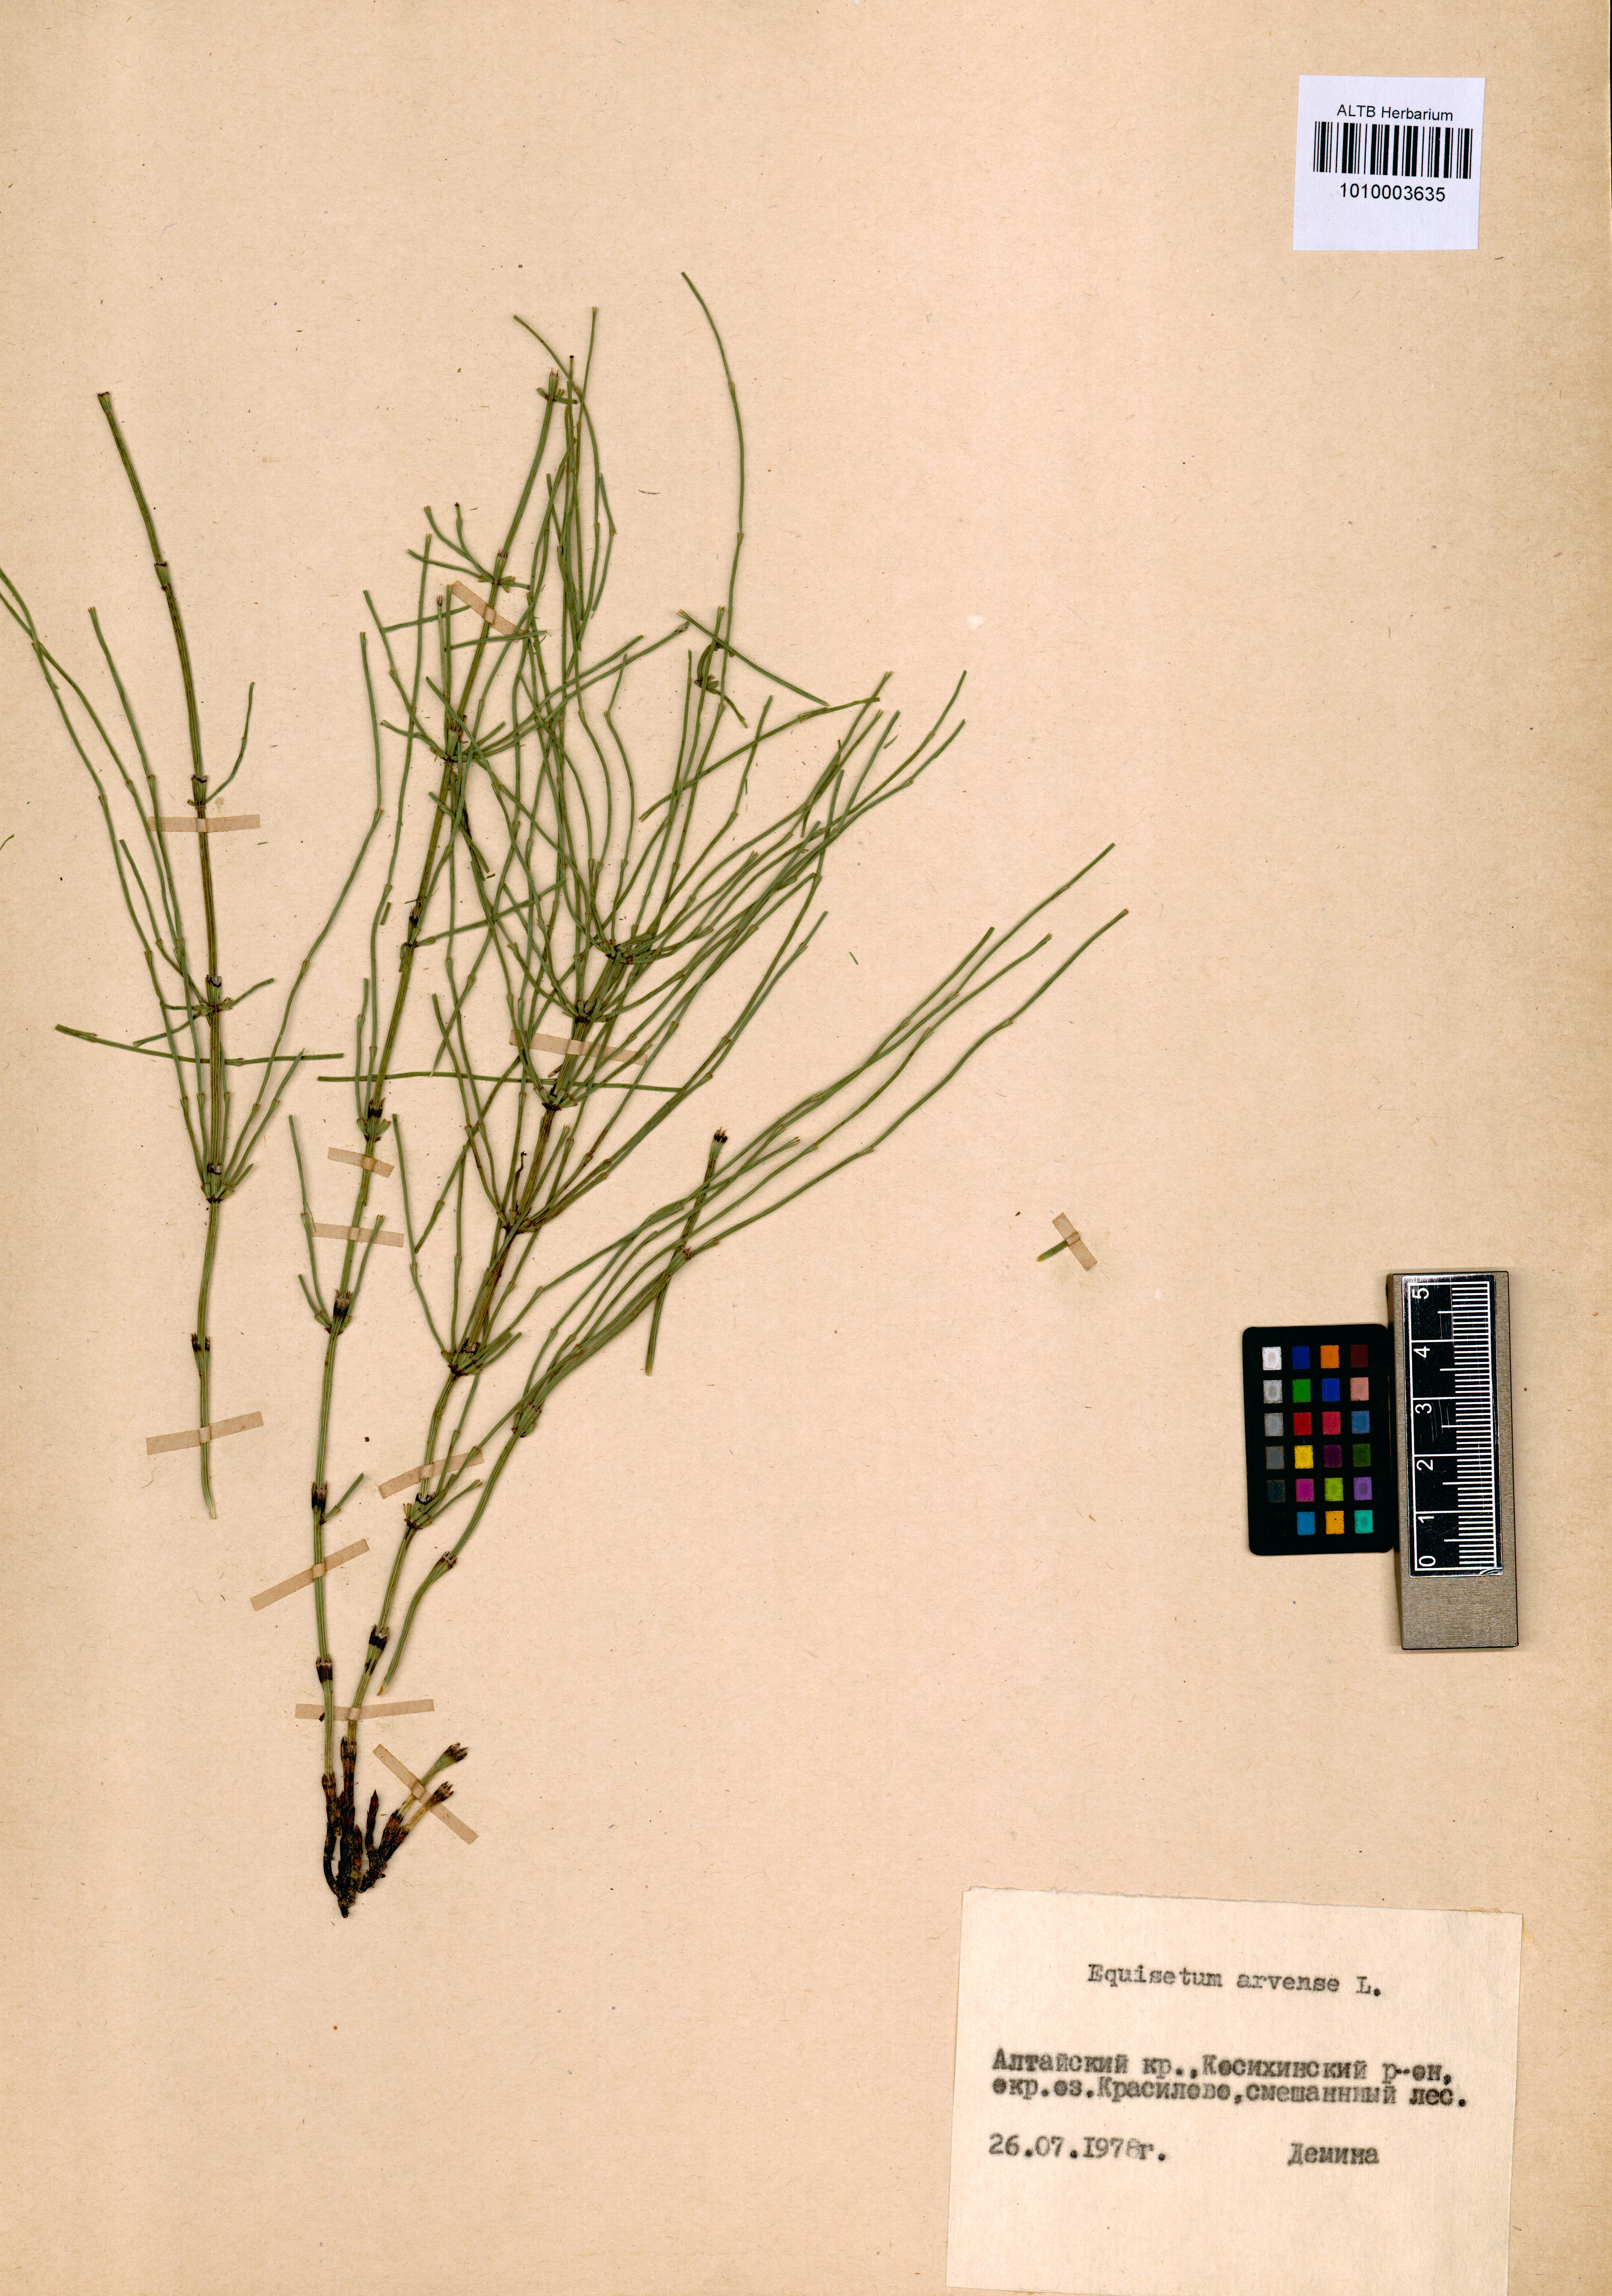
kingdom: Plantae
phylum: Tracheophyta
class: Polypodiopsida
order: Equisetales
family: Equisetaceae
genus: Equisetum
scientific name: Equisetum arvense
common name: Field horsetail
